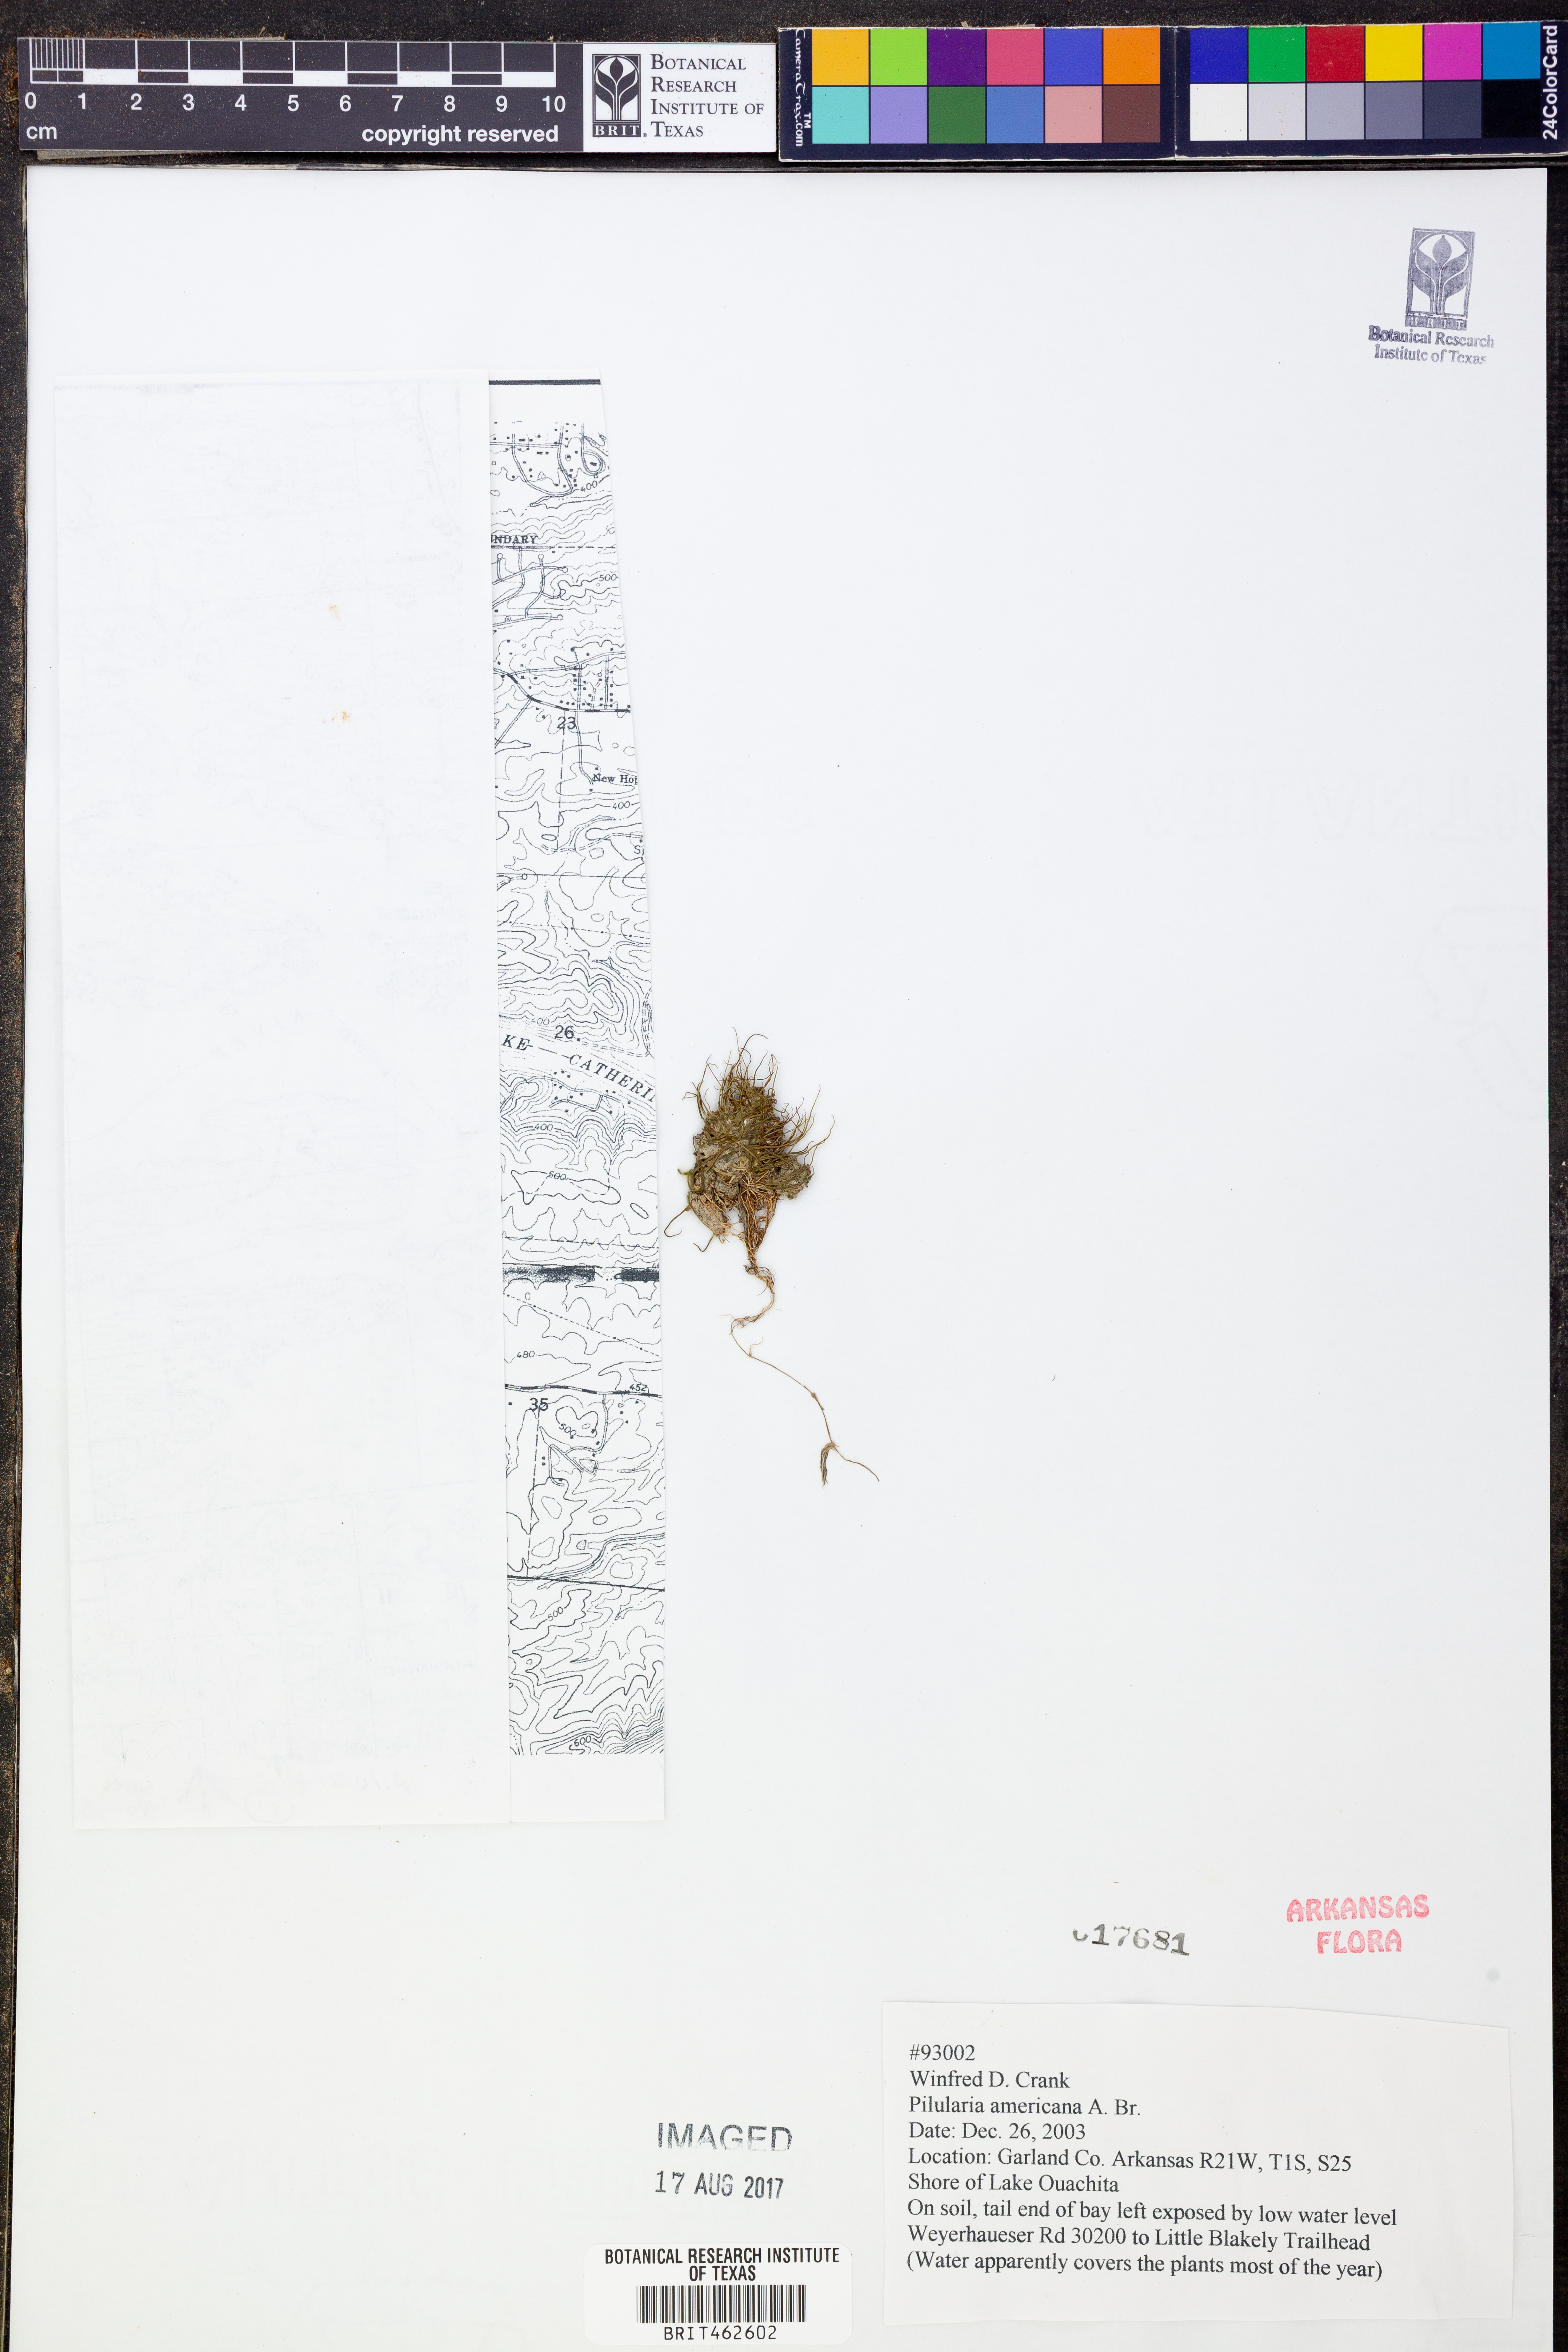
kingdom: Plantae
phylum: Tracheophyta
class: Polypodiopsida
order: Salviniales
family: Marsileaceae
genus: Pilularia
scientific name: Pilularia americana
